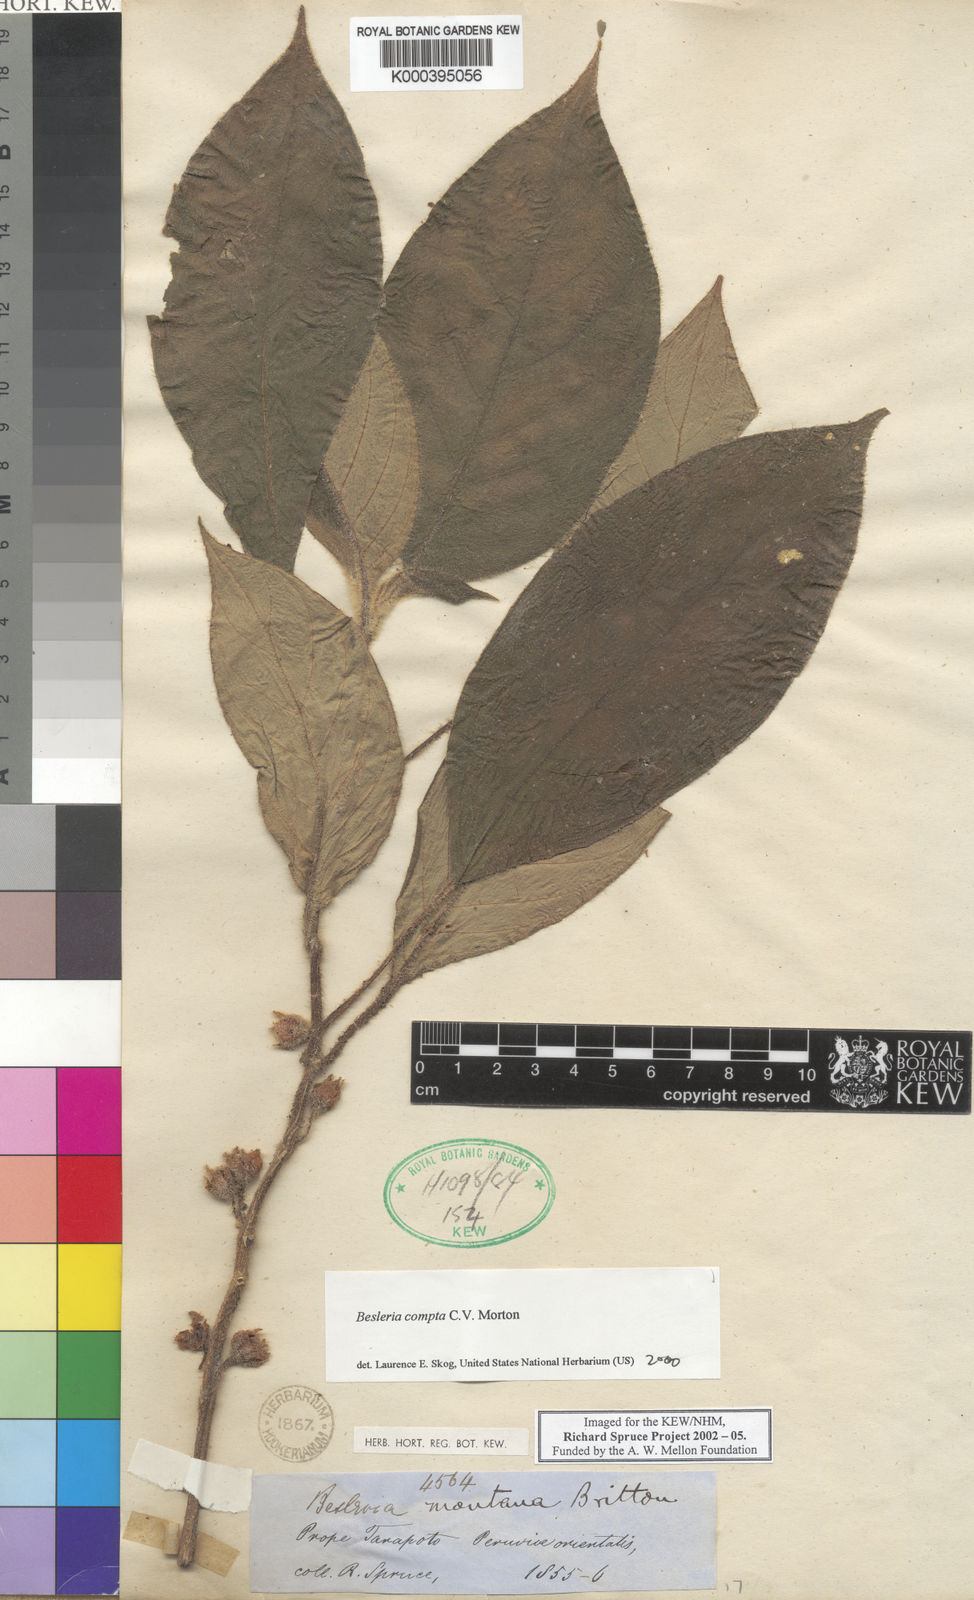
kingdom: Plantae
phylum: Tracheophyta
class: Magnoliopsida
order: Lamiales
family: Gesneriaceae
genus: Besleria
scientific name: Besleria compta
